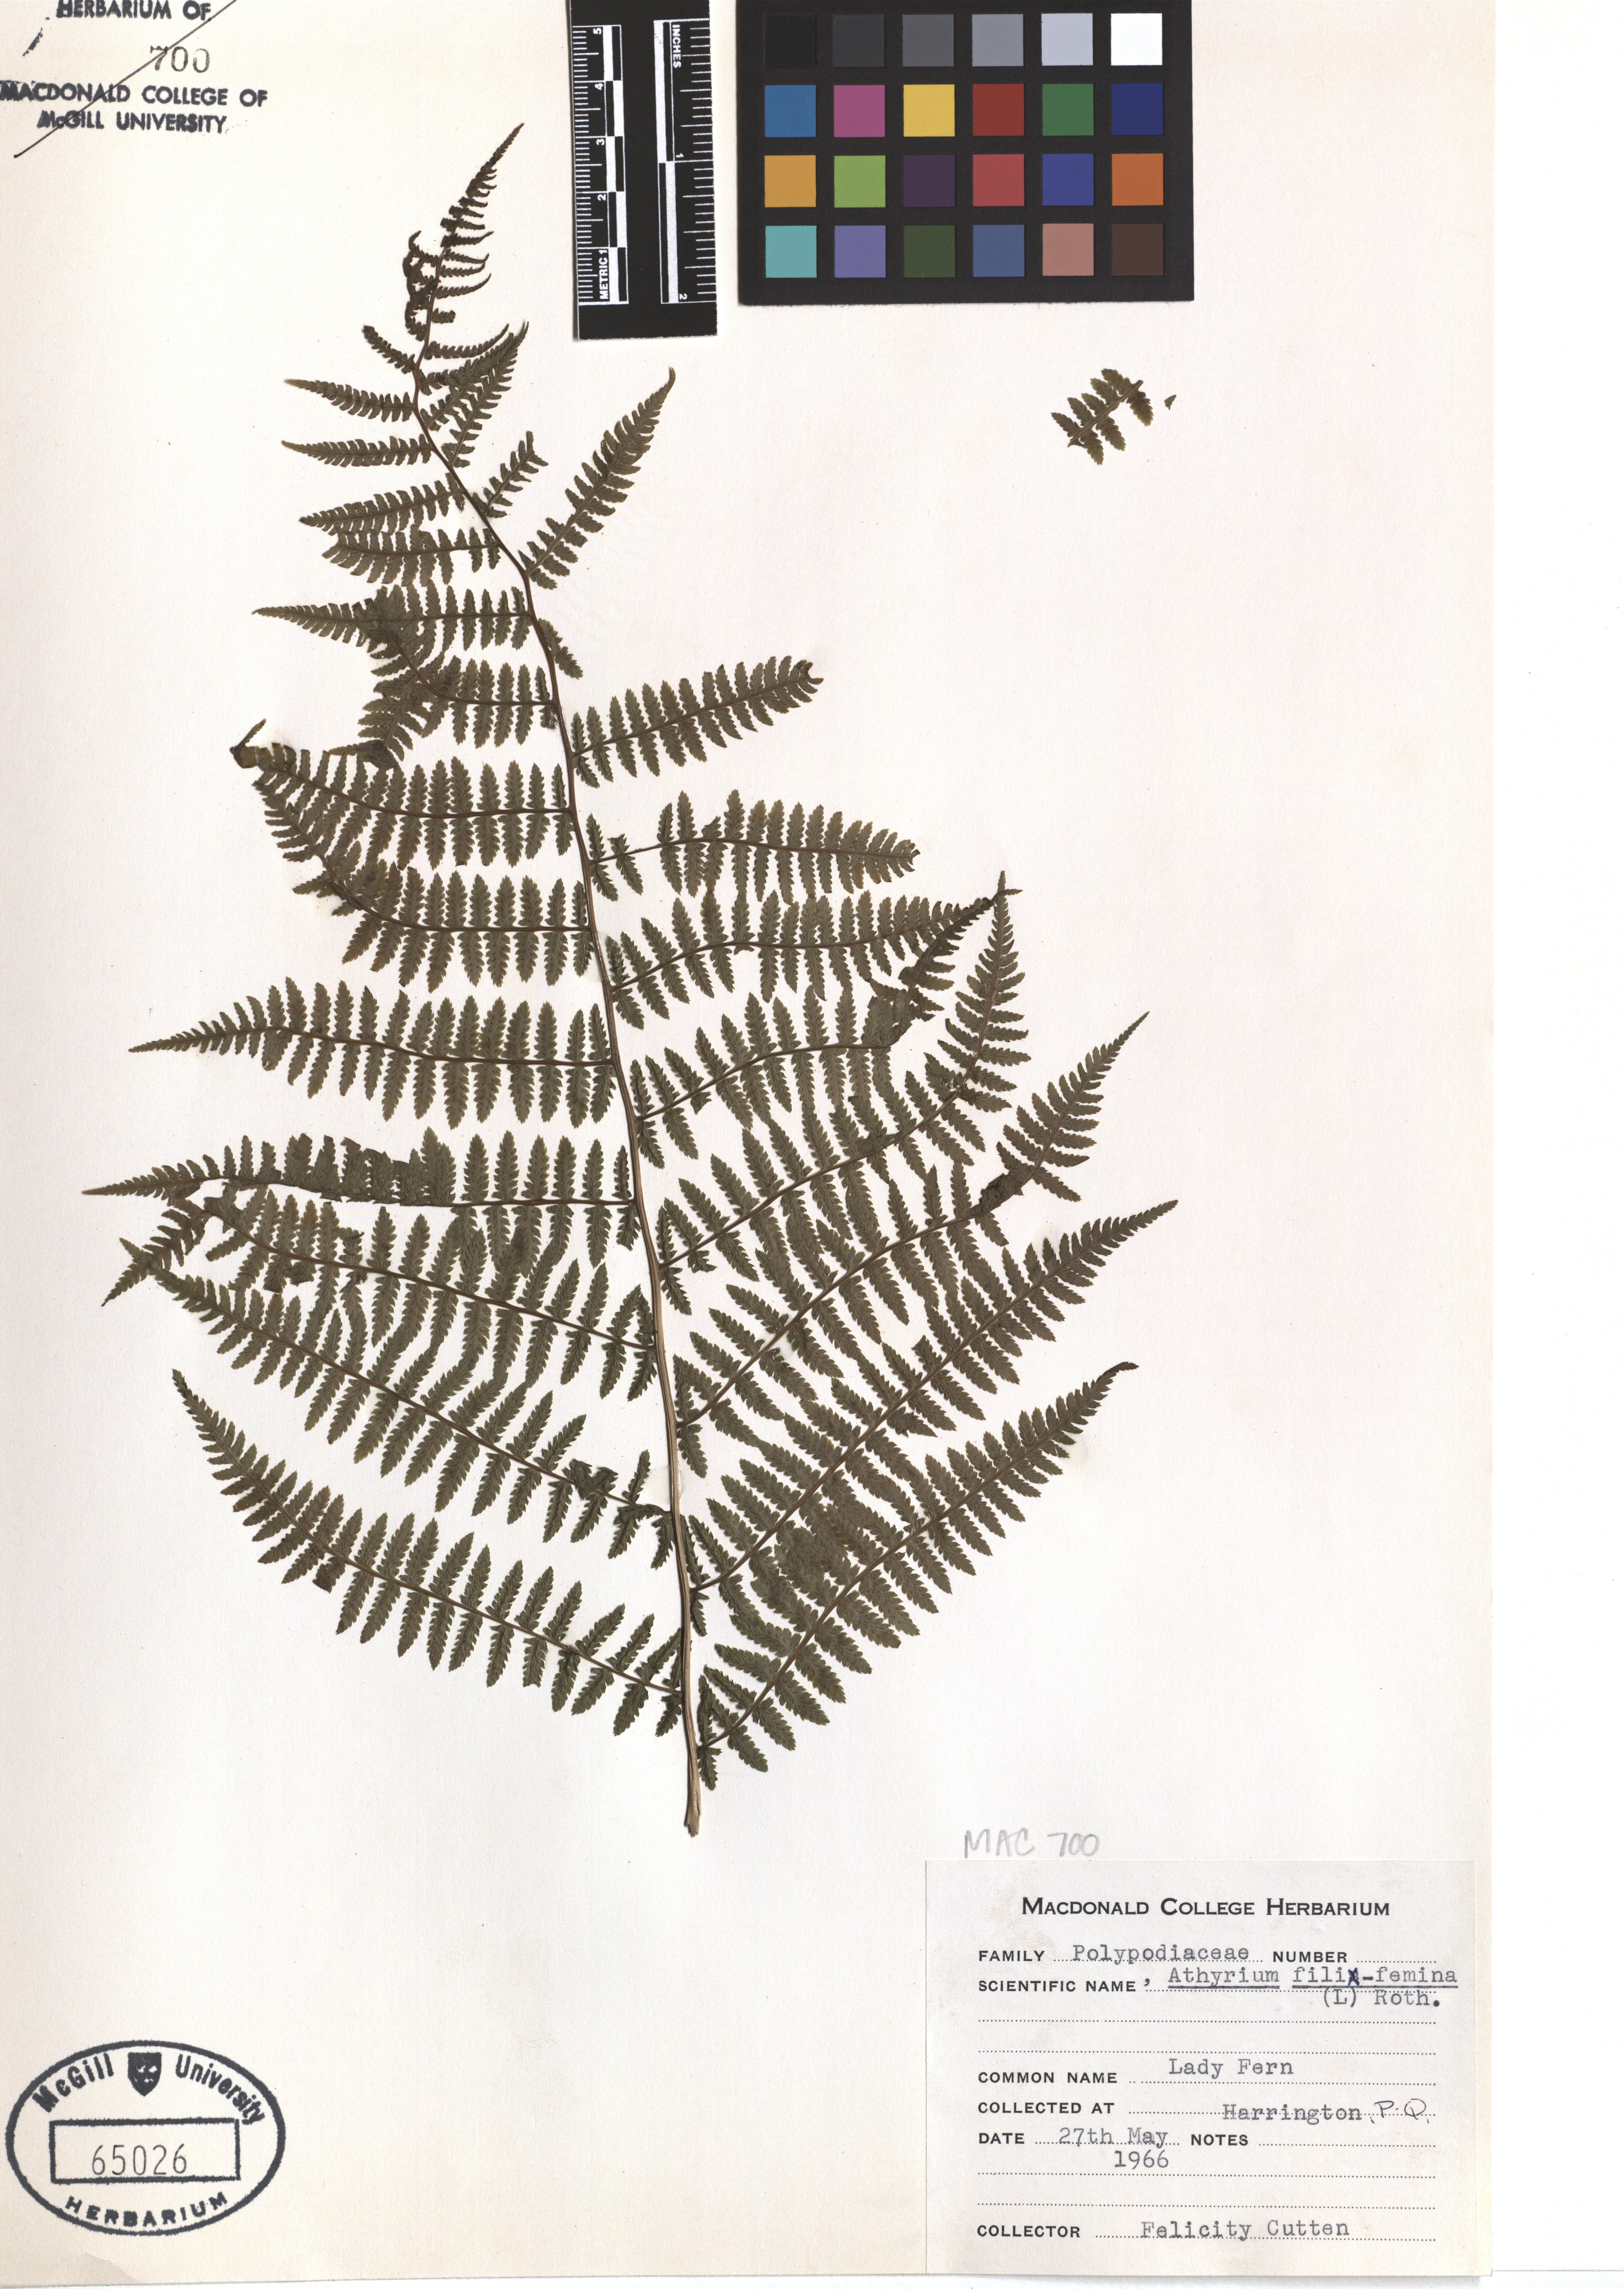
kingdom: Plantae
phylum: Tracheophyta
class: Polypodiopsida
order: Polypodiales
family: Athyriaceae
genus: Athyrium
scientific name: Athyrium filix-femina
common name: Lady fern
